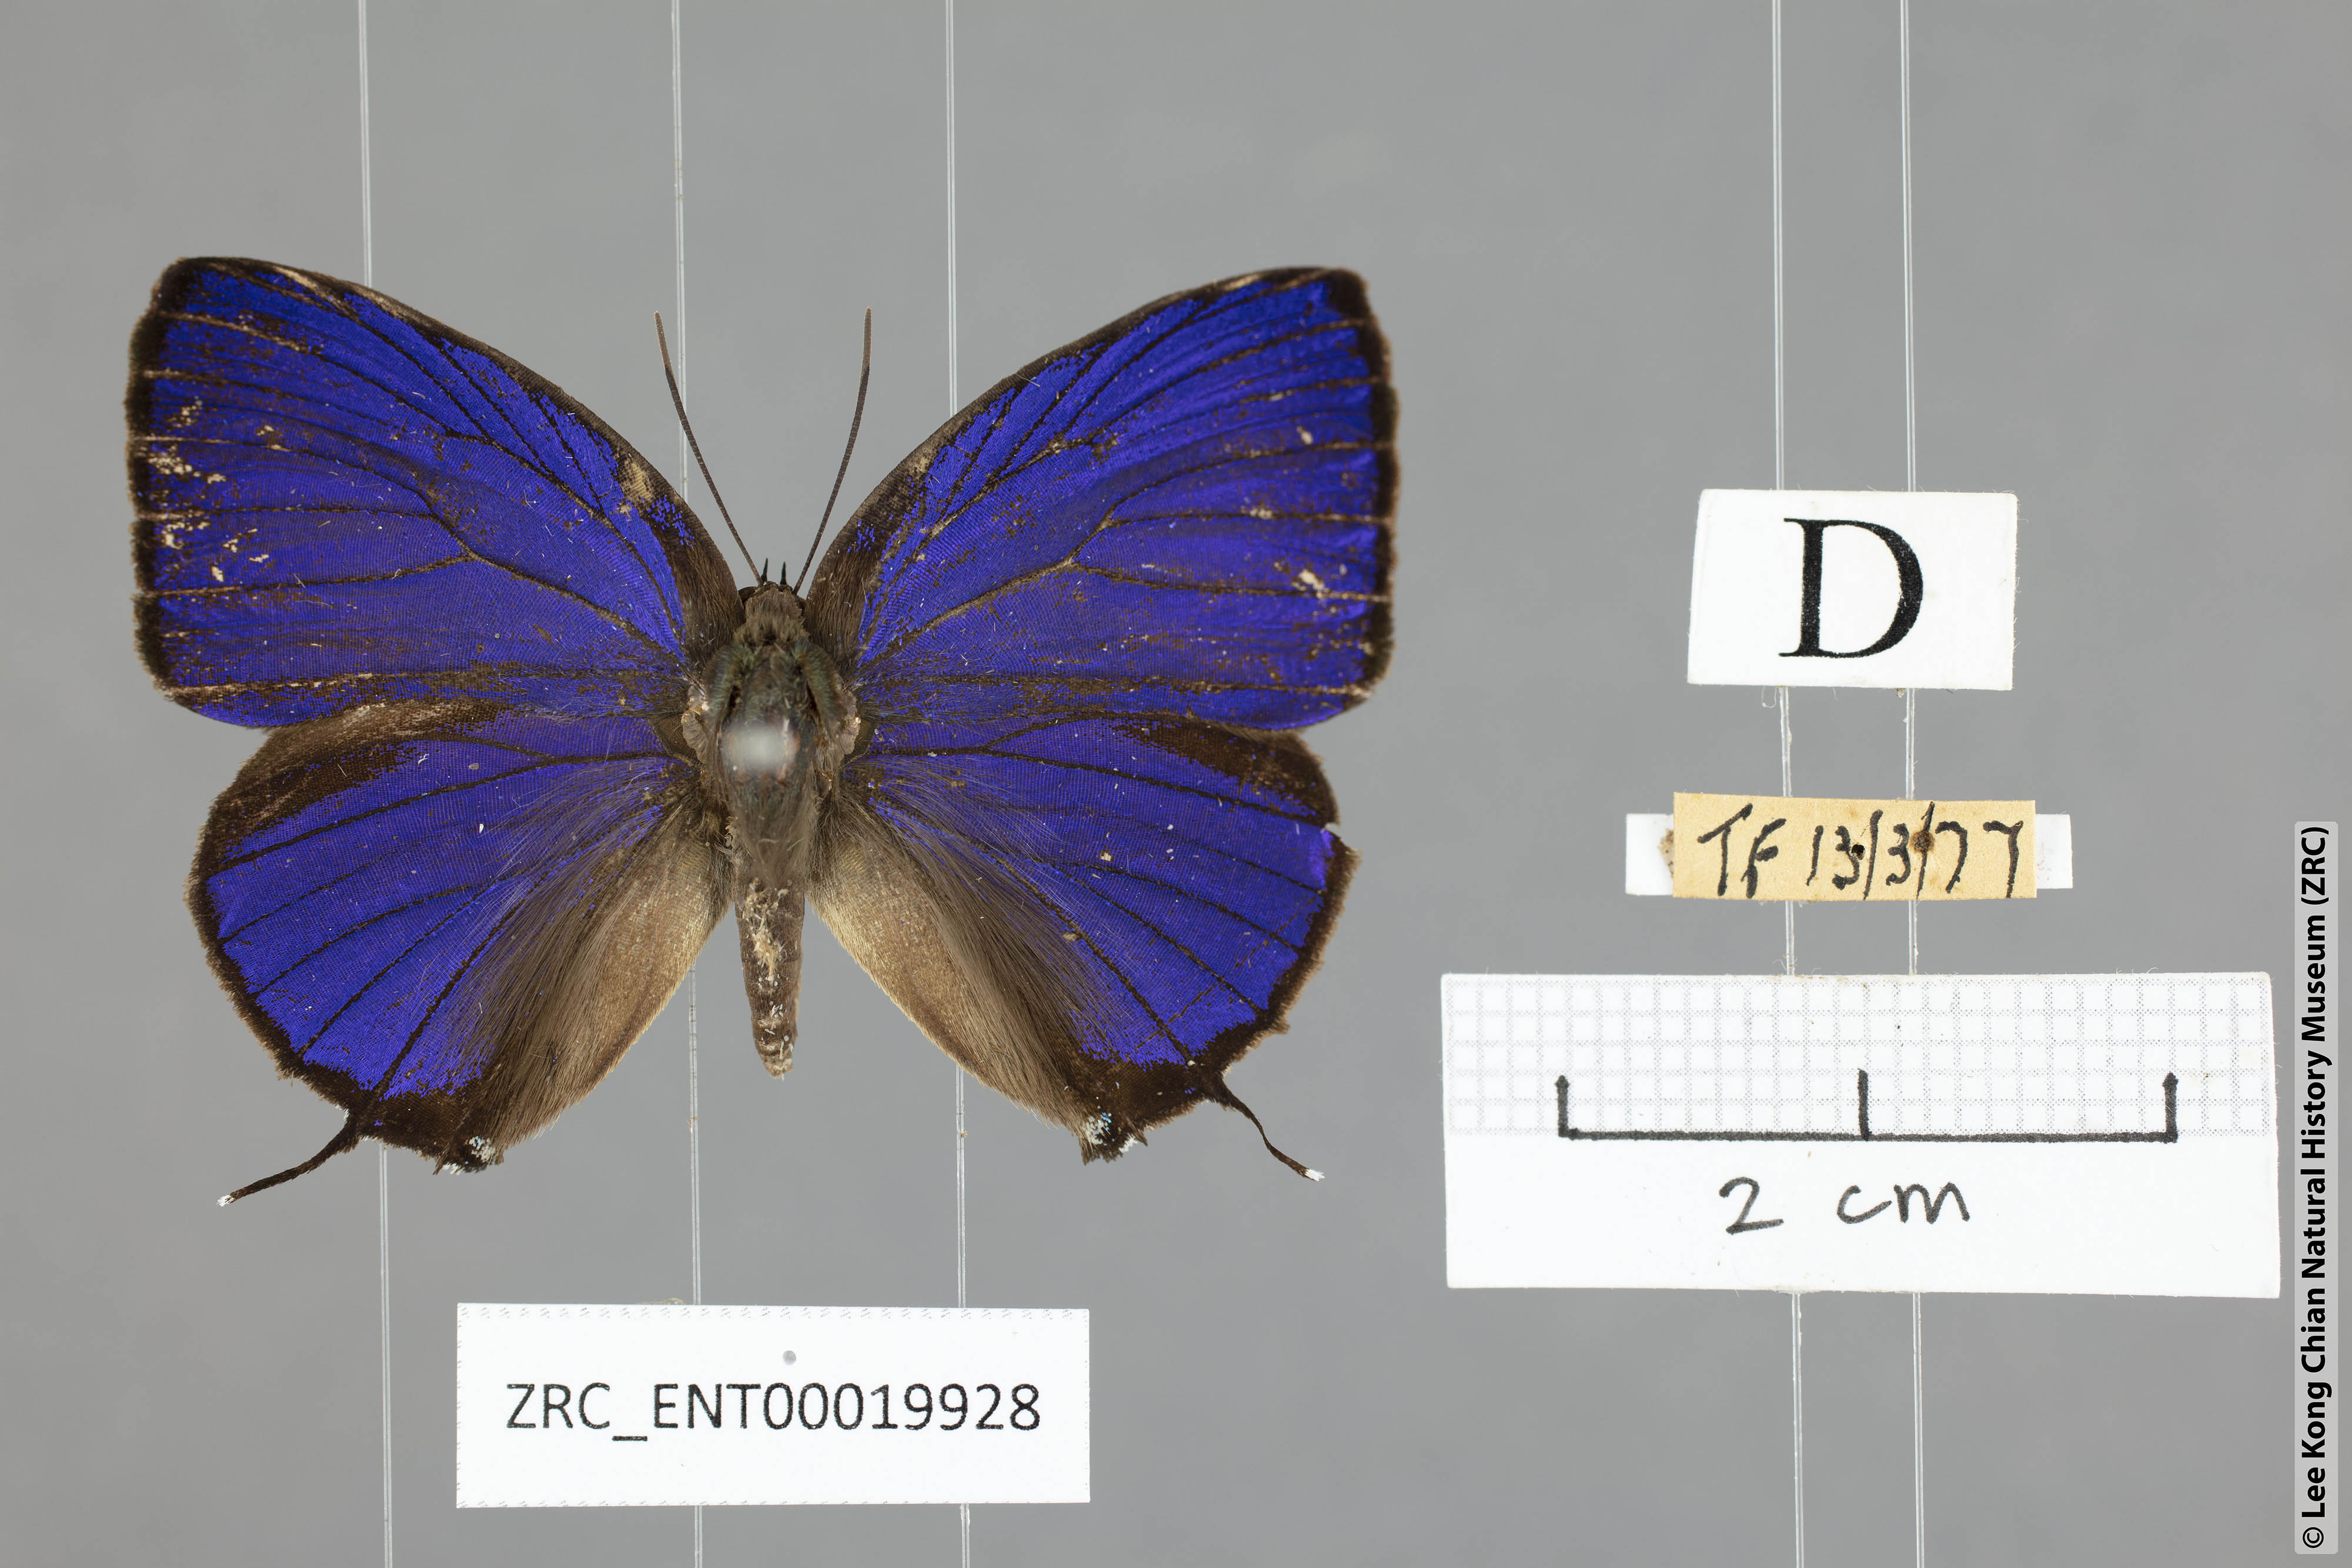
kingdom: Animalia
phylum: Arthropoda
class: Insecta
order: Lepidoptera
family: Lycaenidae
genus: Arhopala
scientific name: Arhopala zambra
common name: Zambra oakblue
